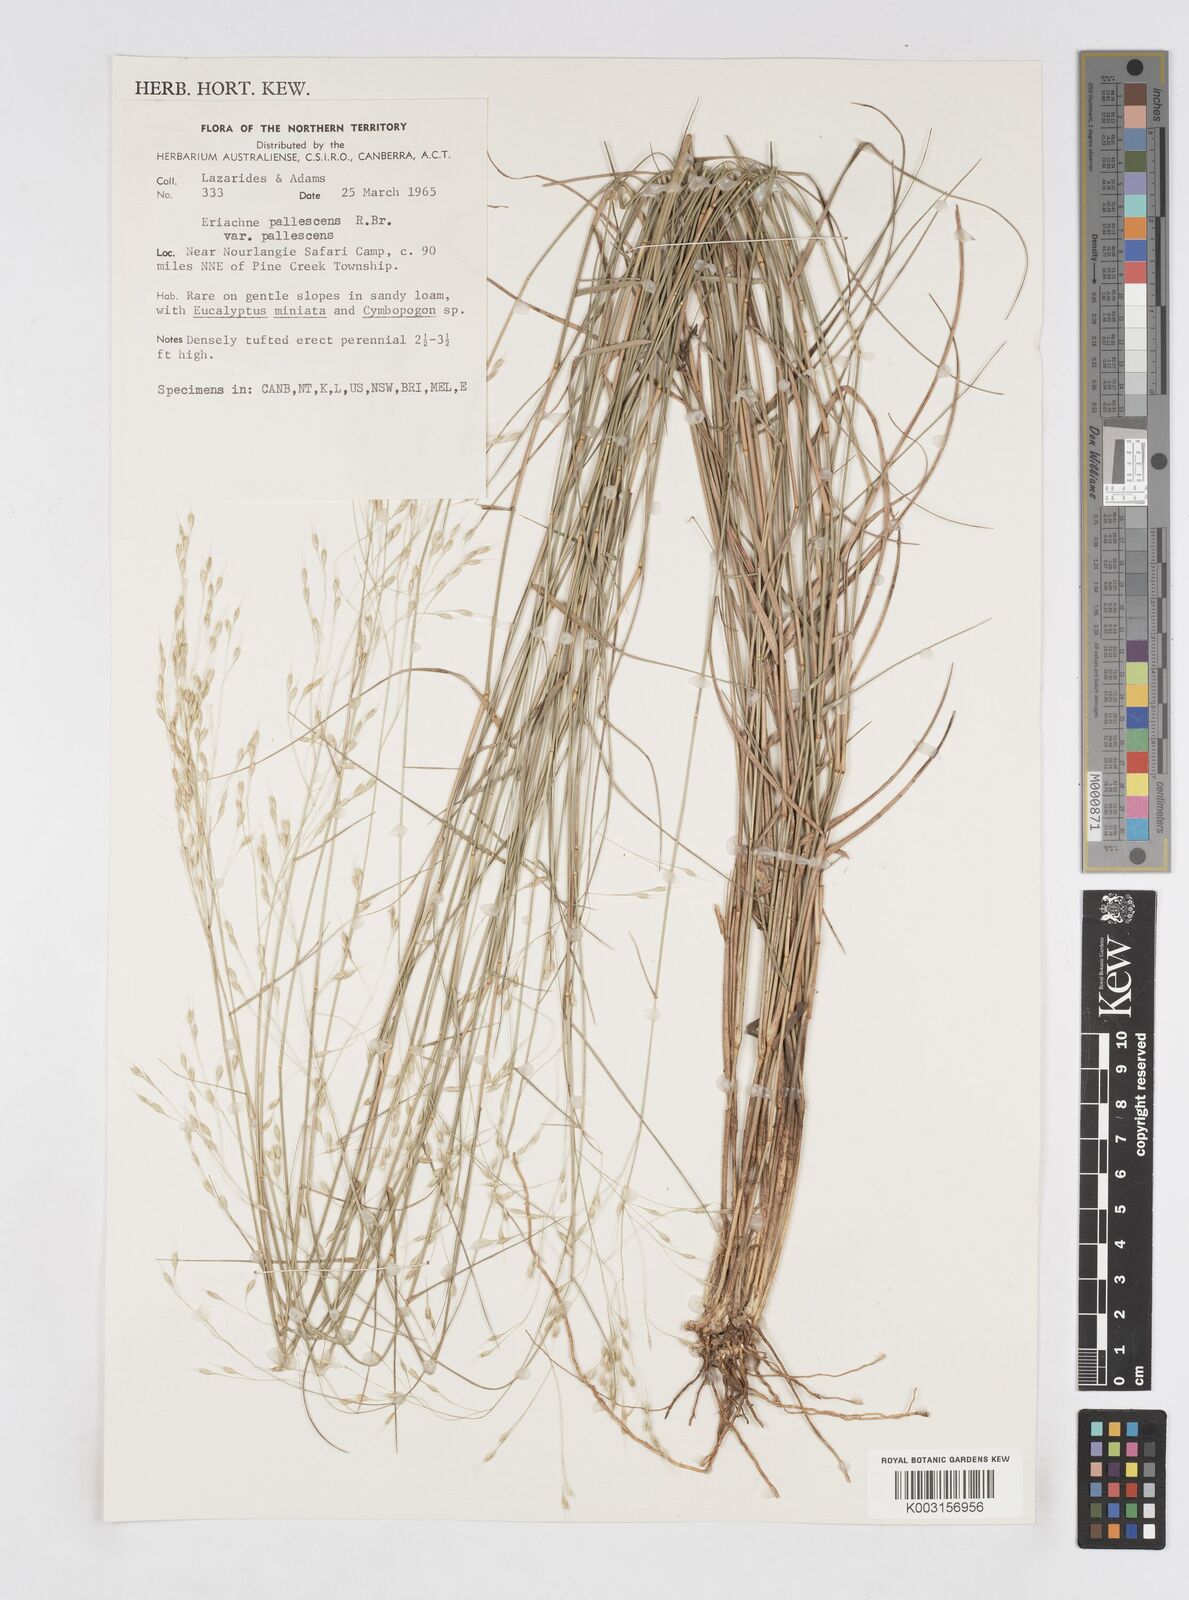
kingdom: Plantae
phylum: Tracheophyta
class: Liliopsida
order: Poales
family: Poaceae
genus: Eriachne
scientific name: Eriachne pallescens
